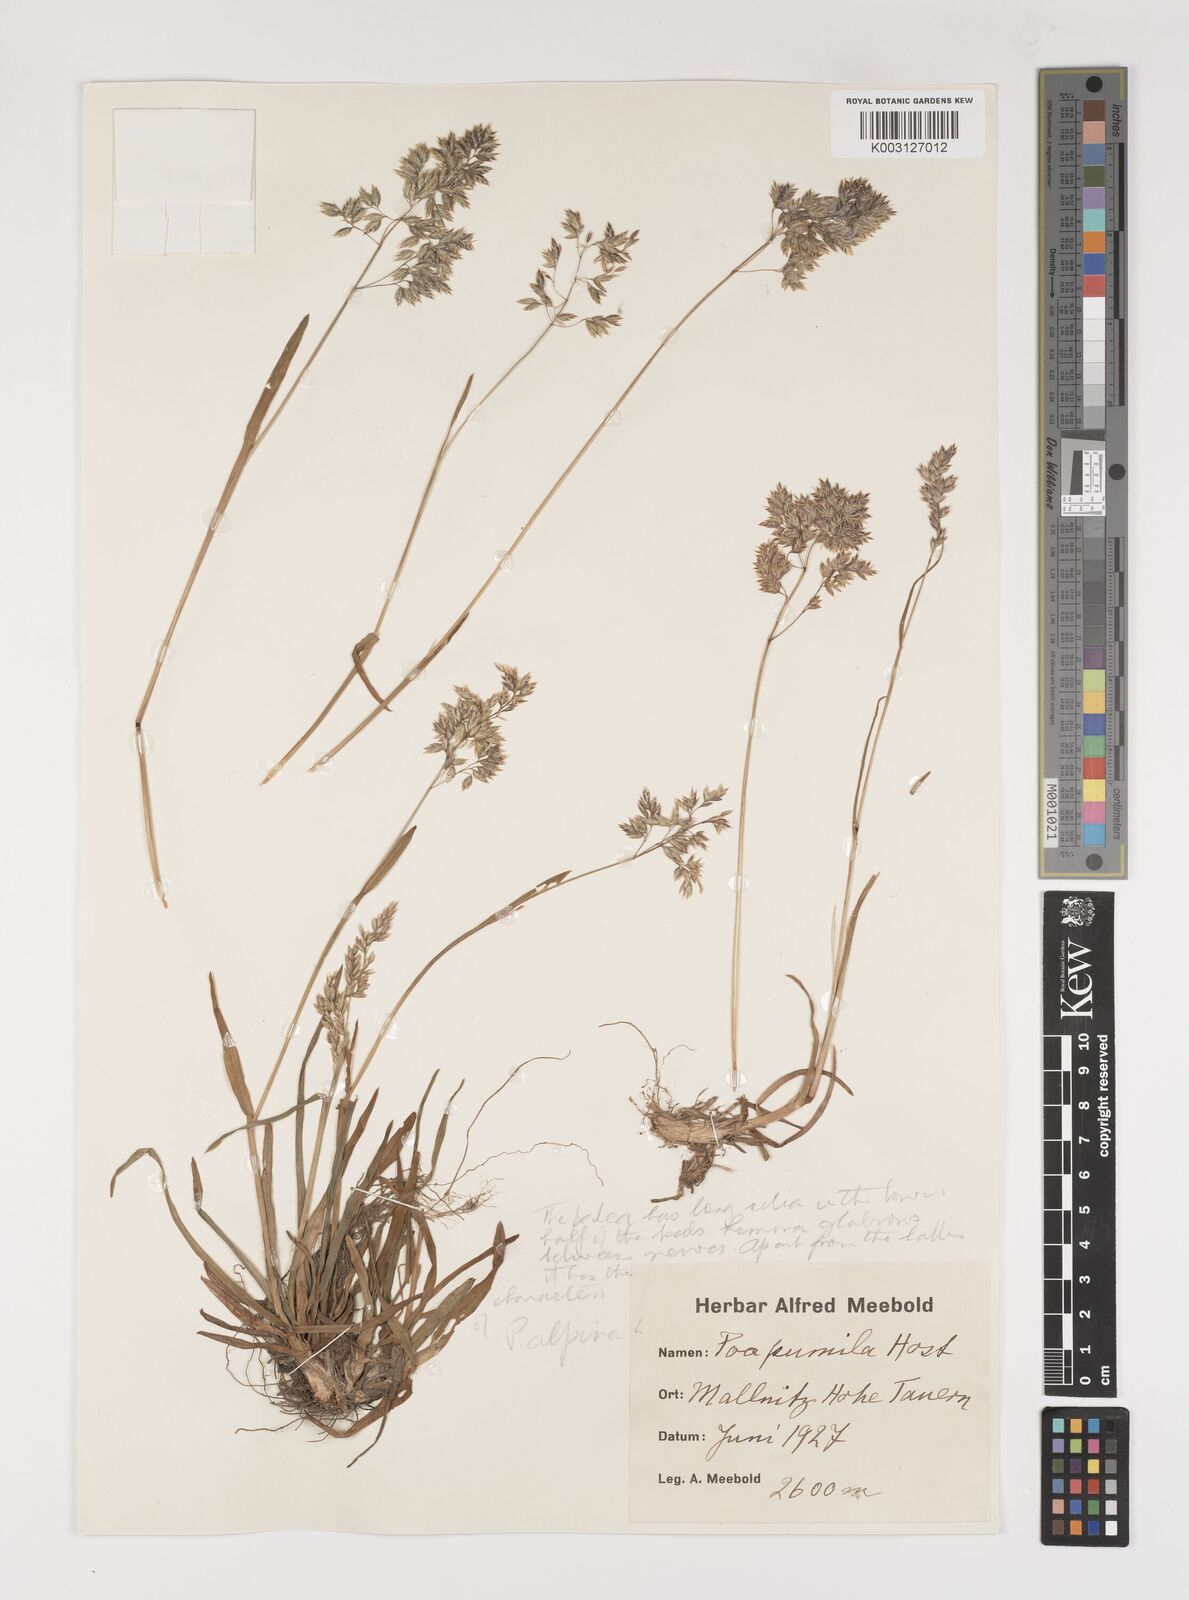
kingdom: Plantae
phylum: Tracheophyta
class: Liliopsida
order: Poales
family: Poaceae
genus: Poa
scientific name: Poa pumila
